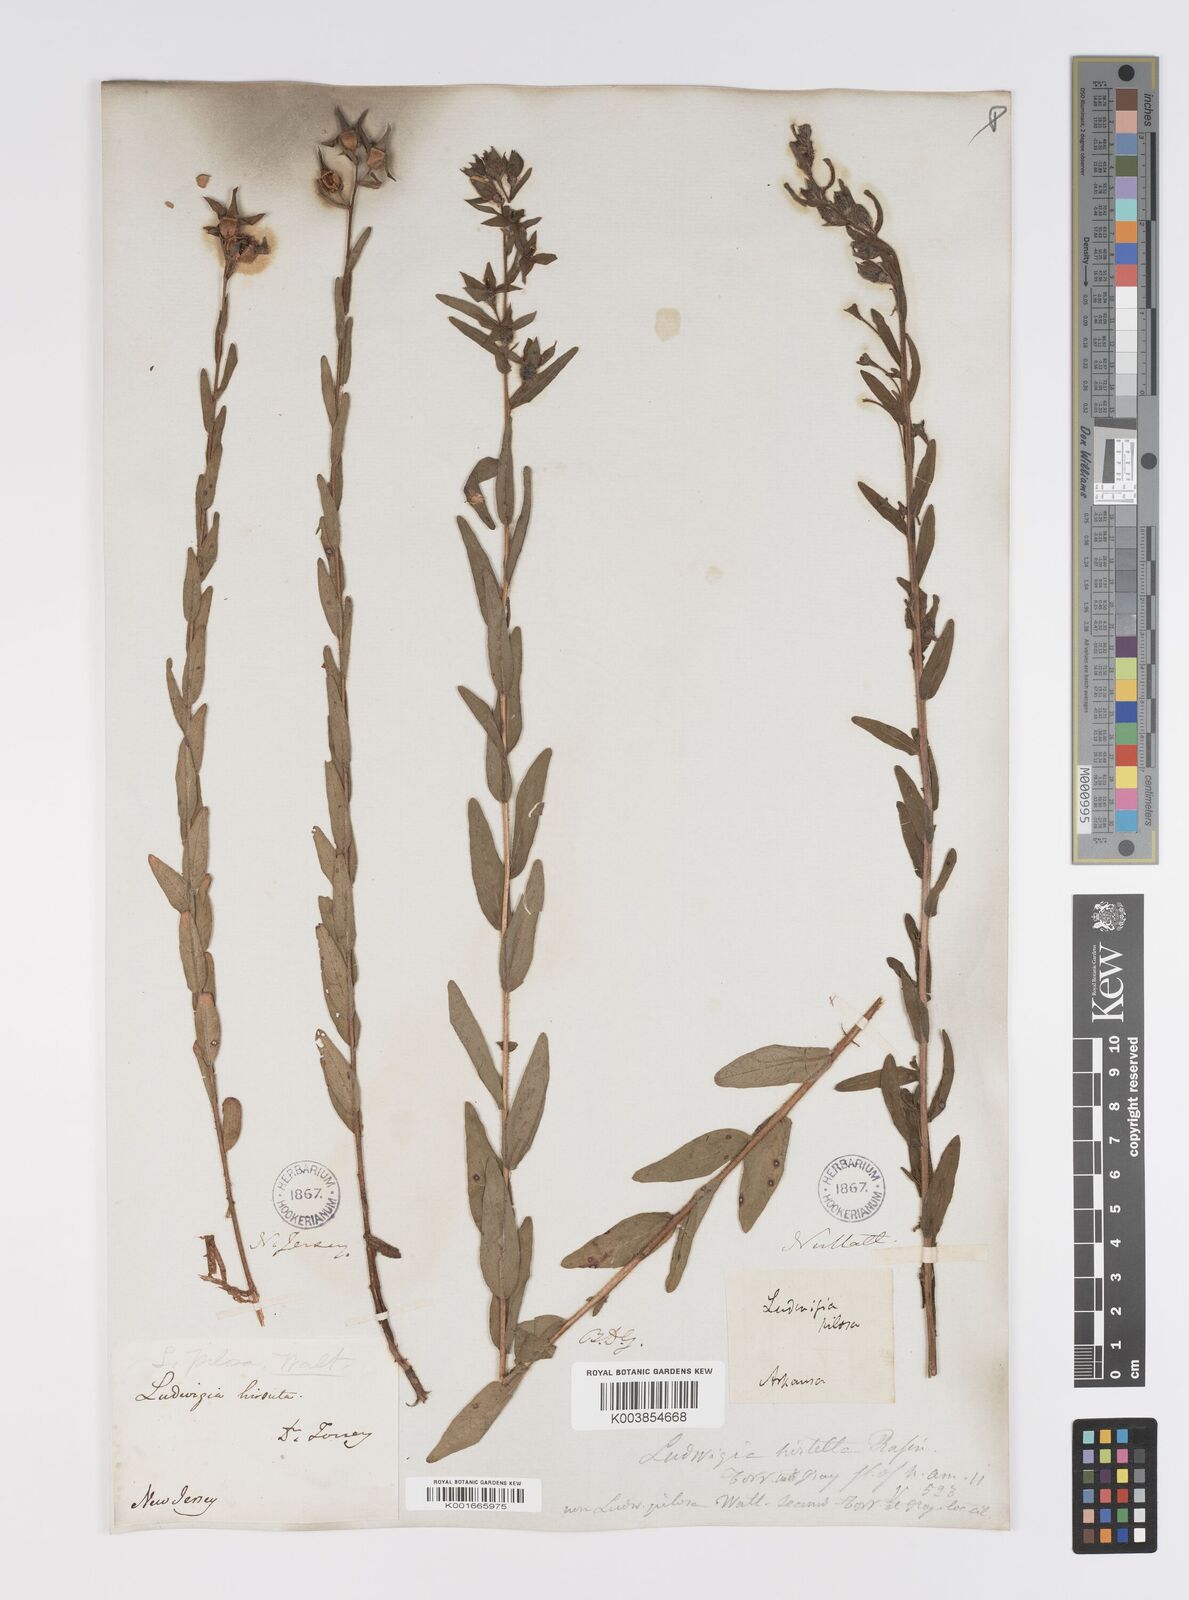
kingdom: Plantae
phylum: Tracheophyta
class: Magnoliopsida
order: Myrtales
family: Onagraceae
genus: Ludwigia
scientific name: Ludwigia hirtella
